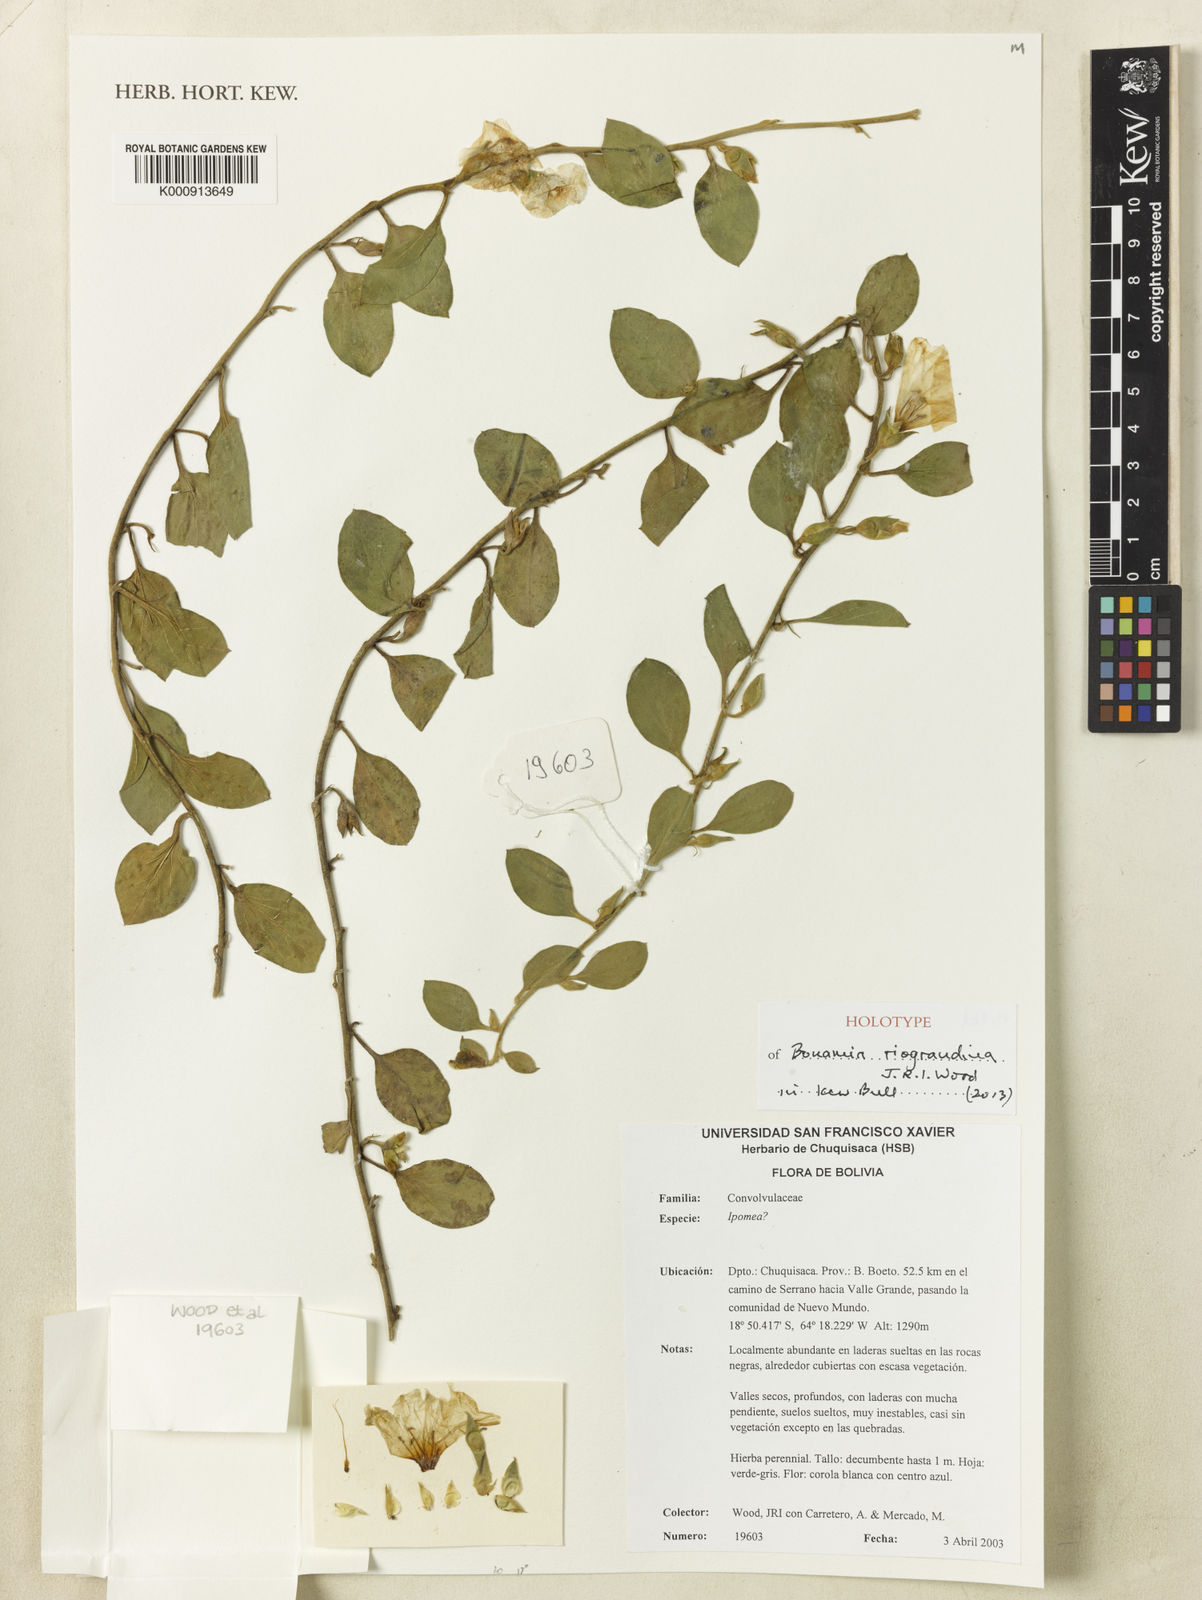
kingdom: Plantae
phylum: Tracheophyta
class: Magnoliopsida
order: Solanales
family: Convolvulaceae
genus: Bonamia
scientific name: Bonamia riograndina
